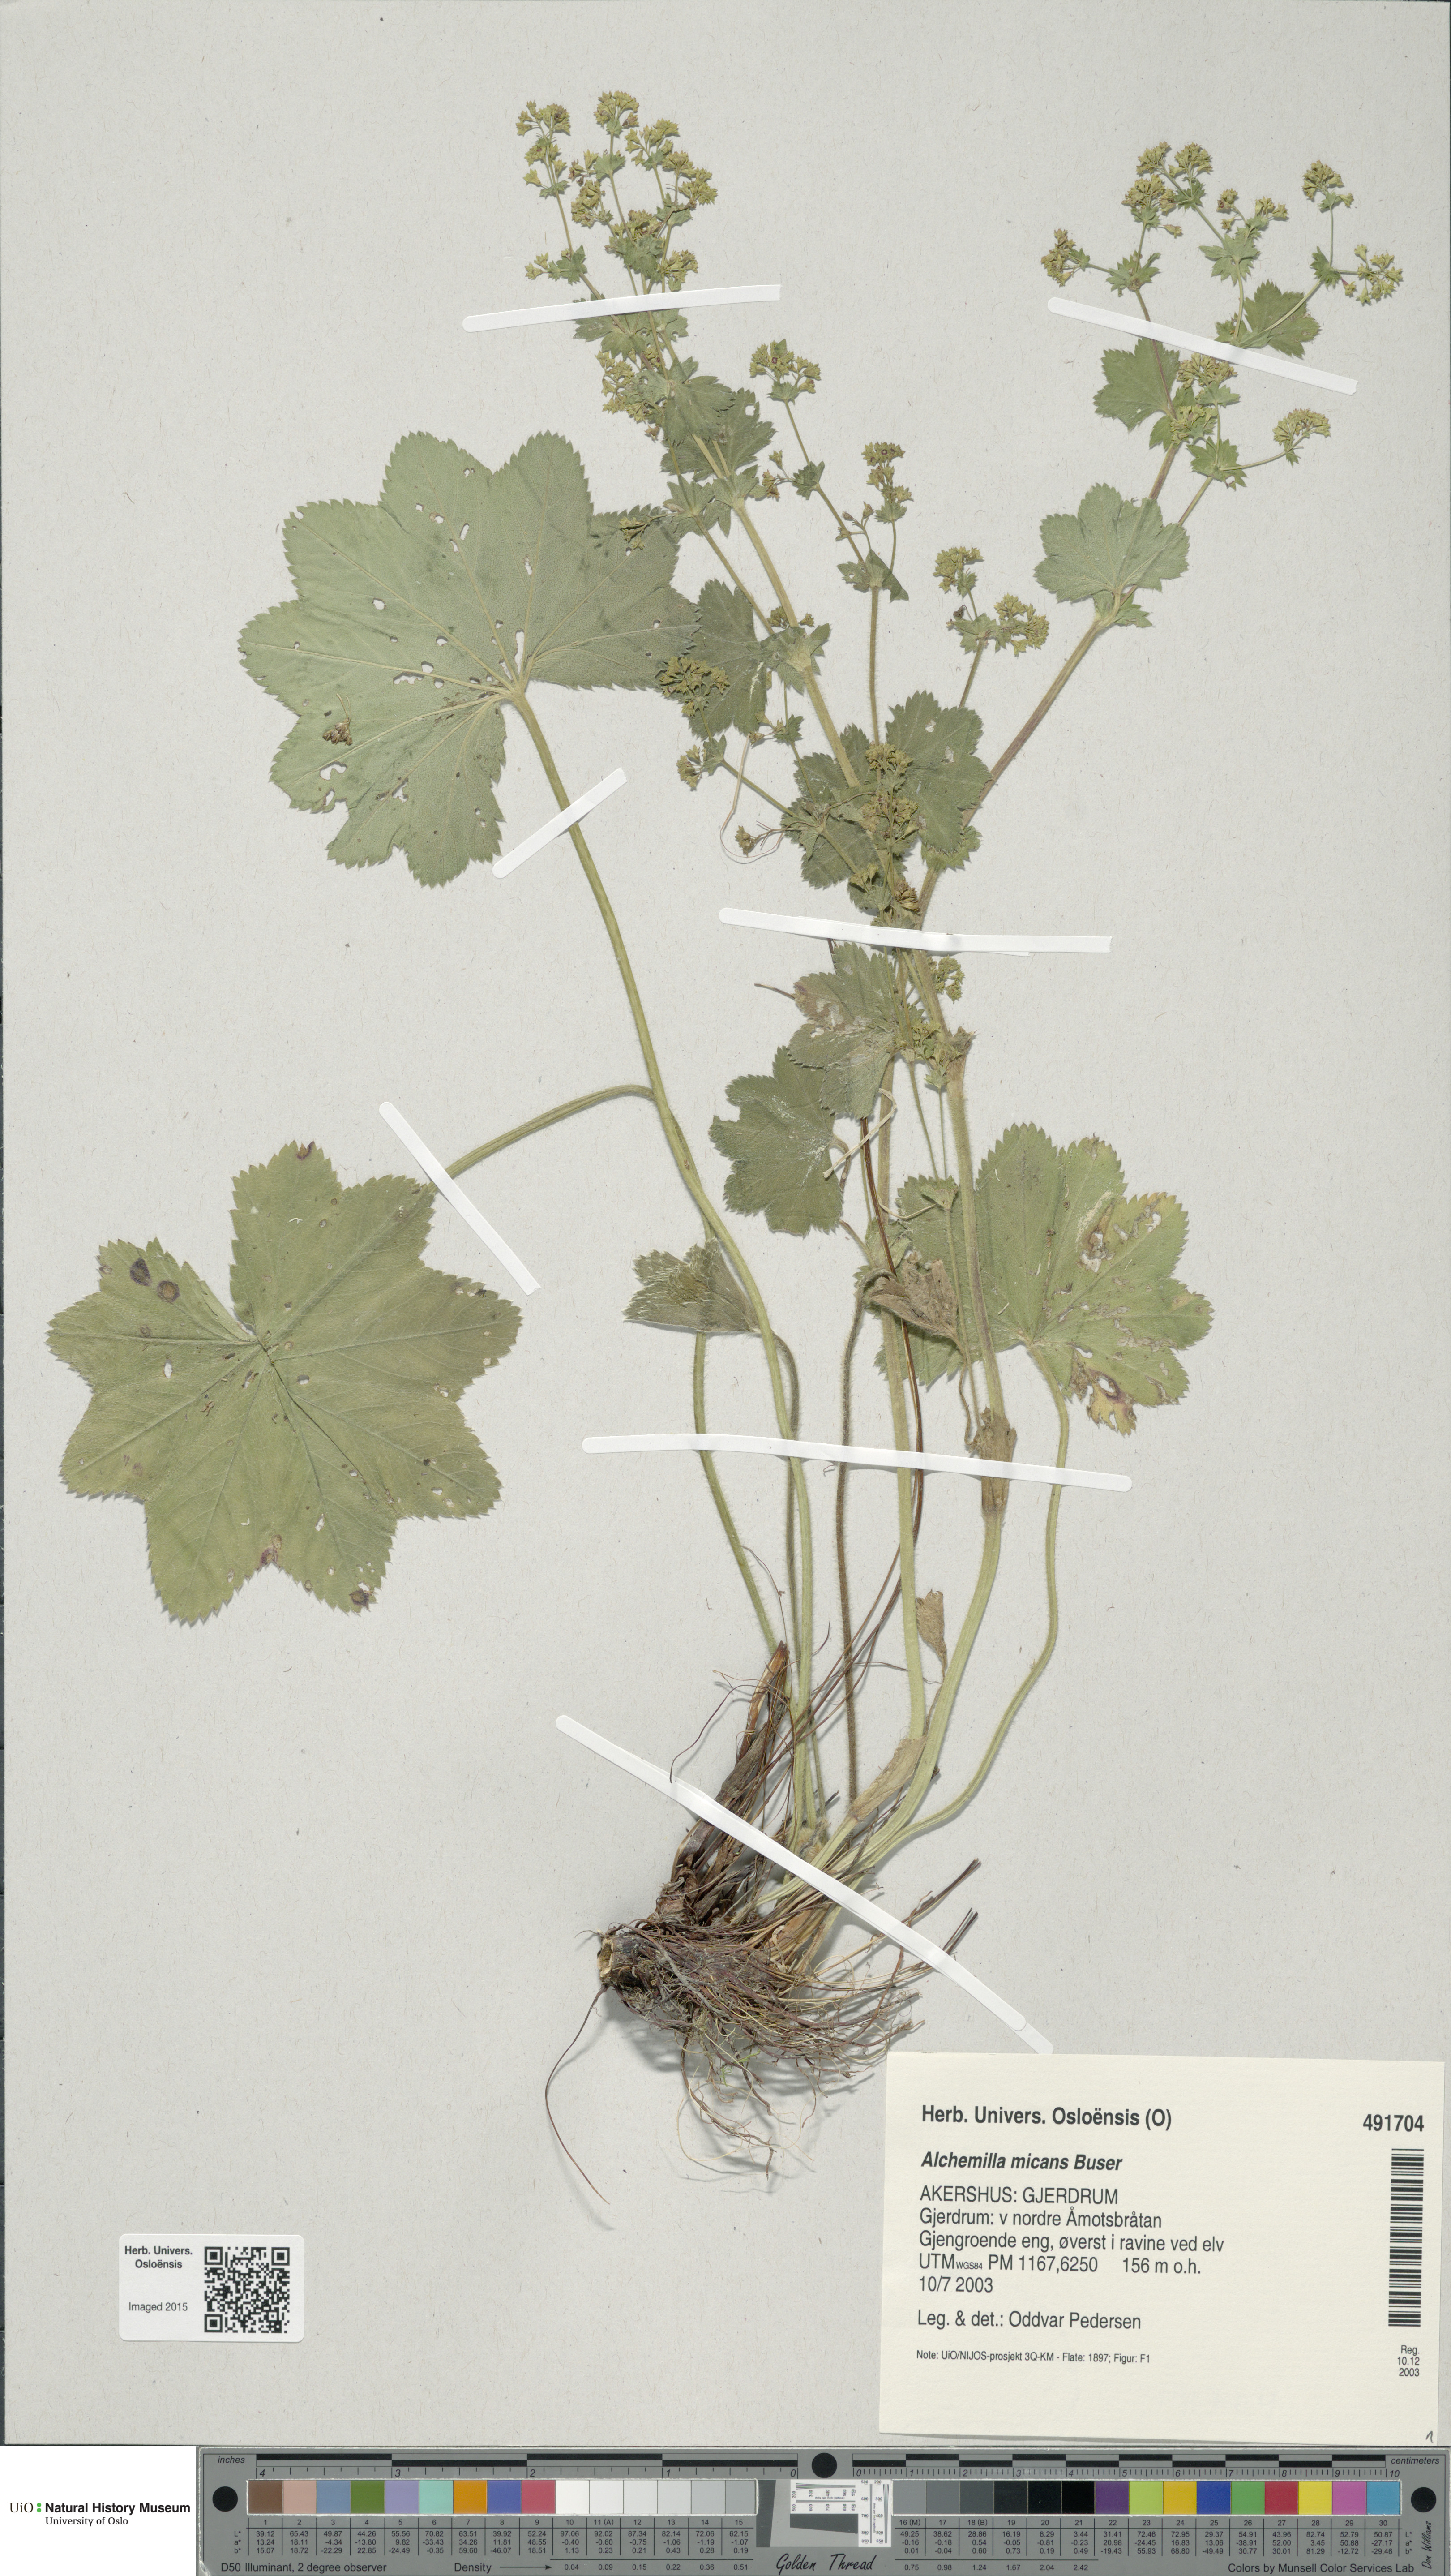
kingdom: Plantae
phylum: Tracheophyta
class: Magnoliopsida
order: Rosales
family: Rosaceae
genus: Alchemilla
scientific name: Alchemilla micans
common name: Gleaming lady's mantle
